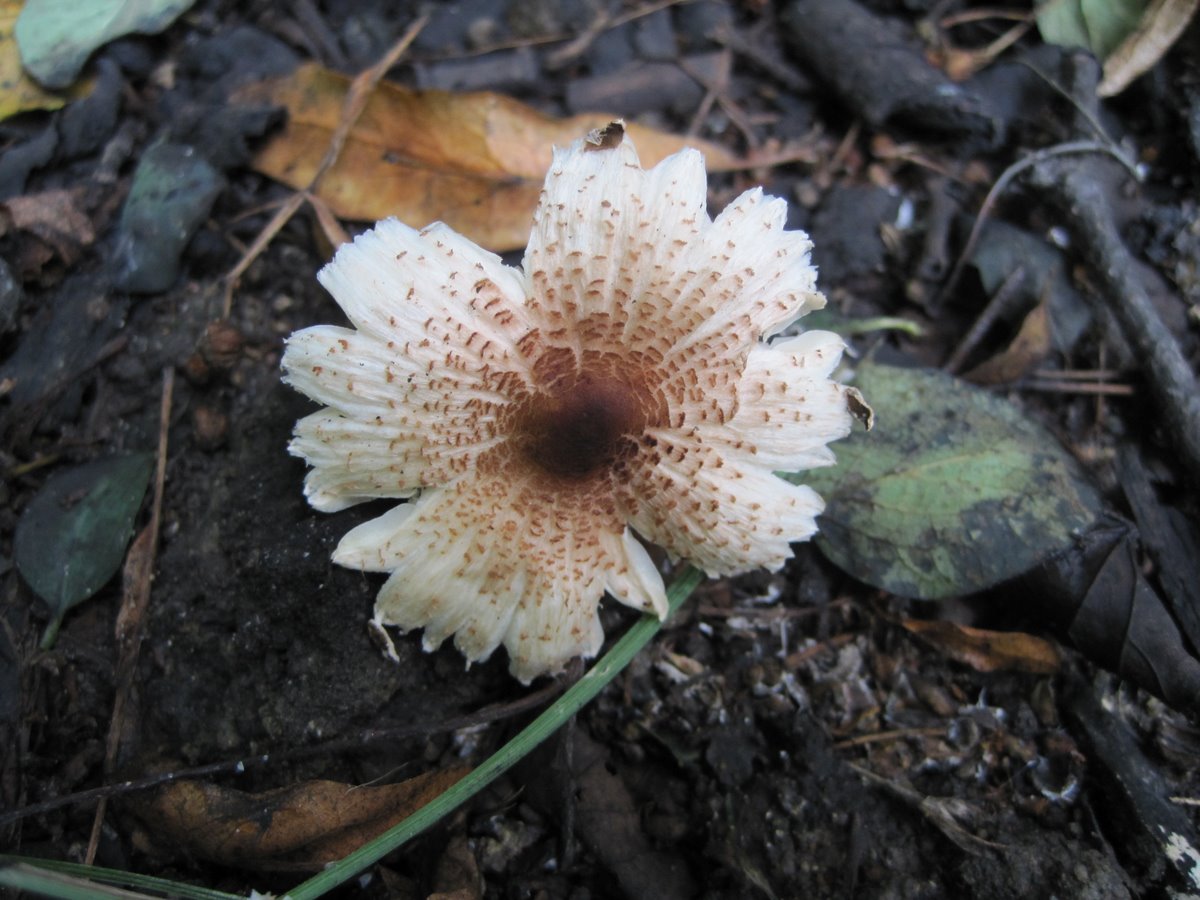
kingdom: Fungi
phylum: Basidiomycota
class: Agaricomycetes
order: Agaricales
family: Agaricaceae
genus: Lepiota
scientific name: Lepiota cristata
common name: stinkende parasolhat
